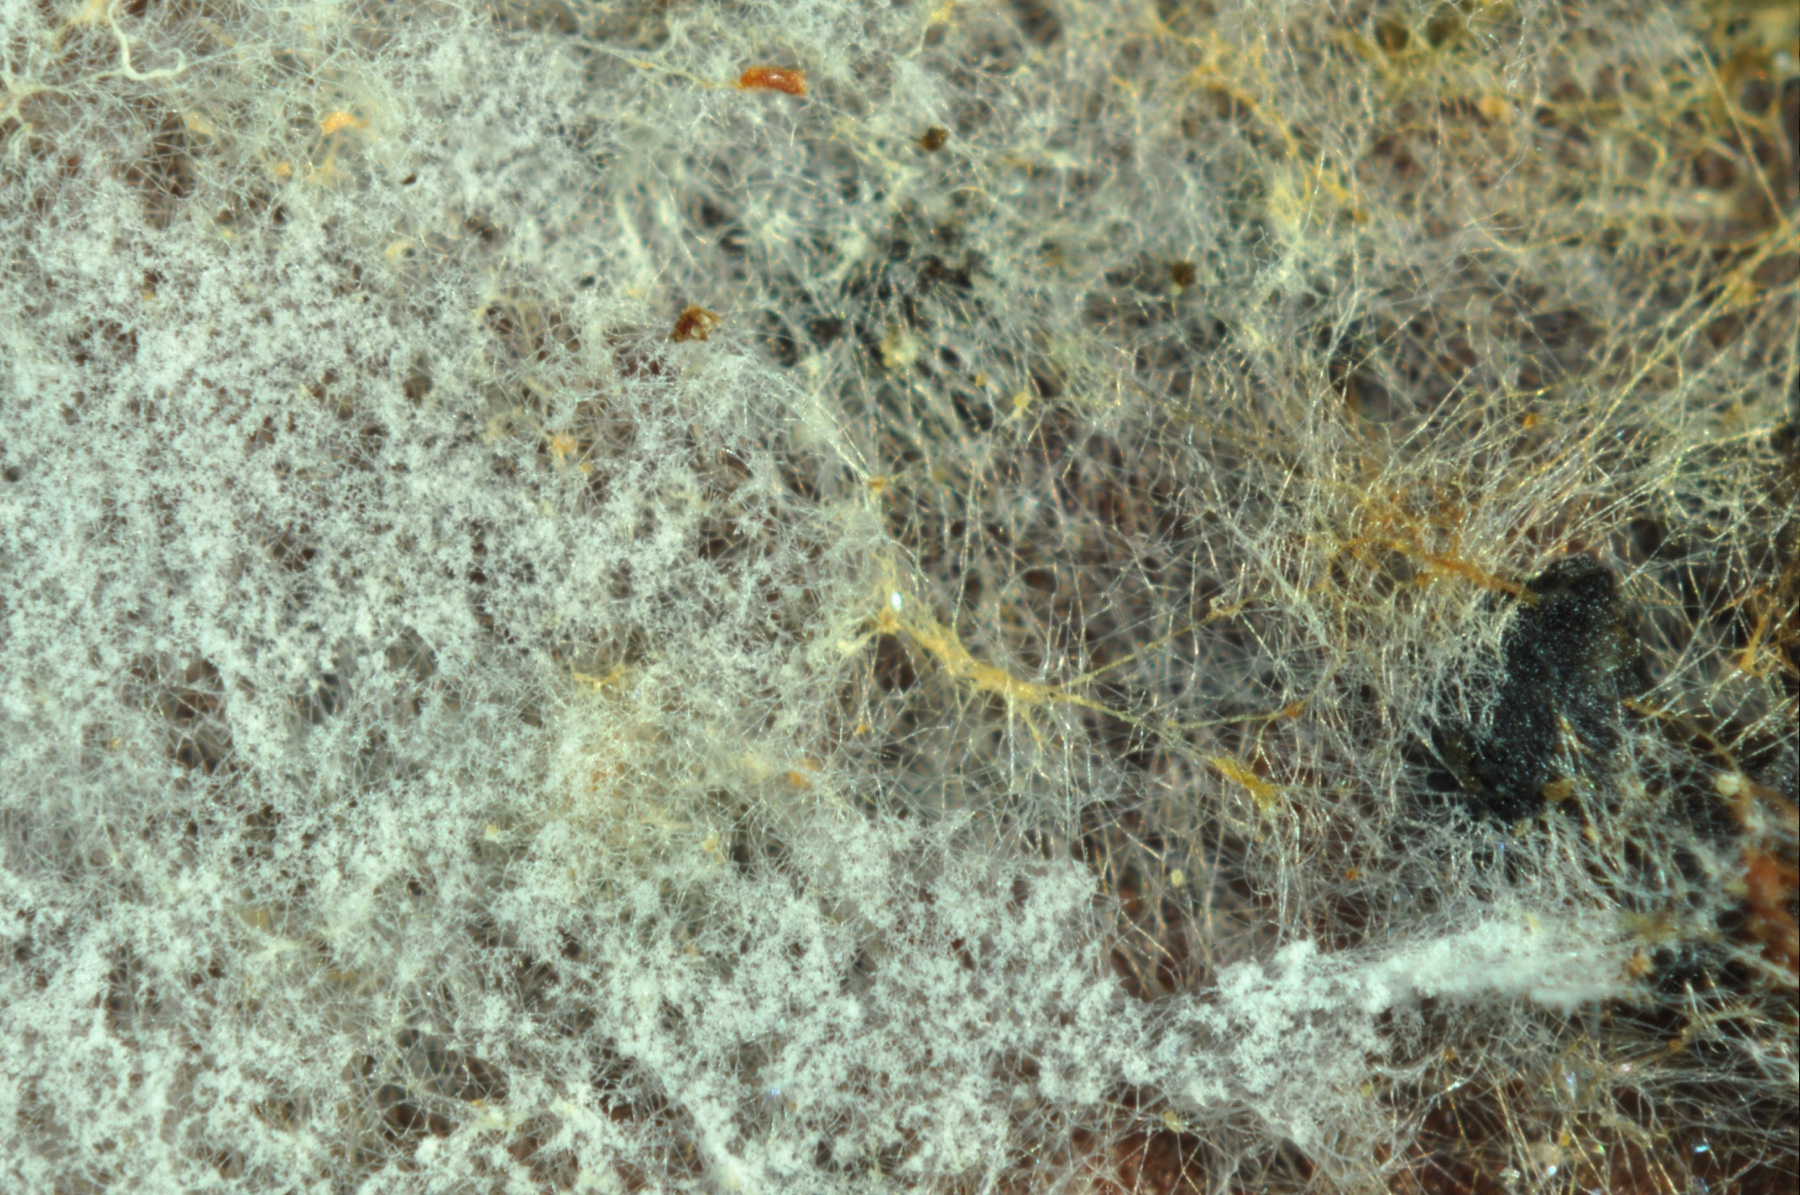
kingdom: Fungi
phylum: Basidiomycota
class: Agaricomycetes
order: Atheliales
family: Atheliaceae
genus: Piloderma
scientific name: Piloderma byssinum
